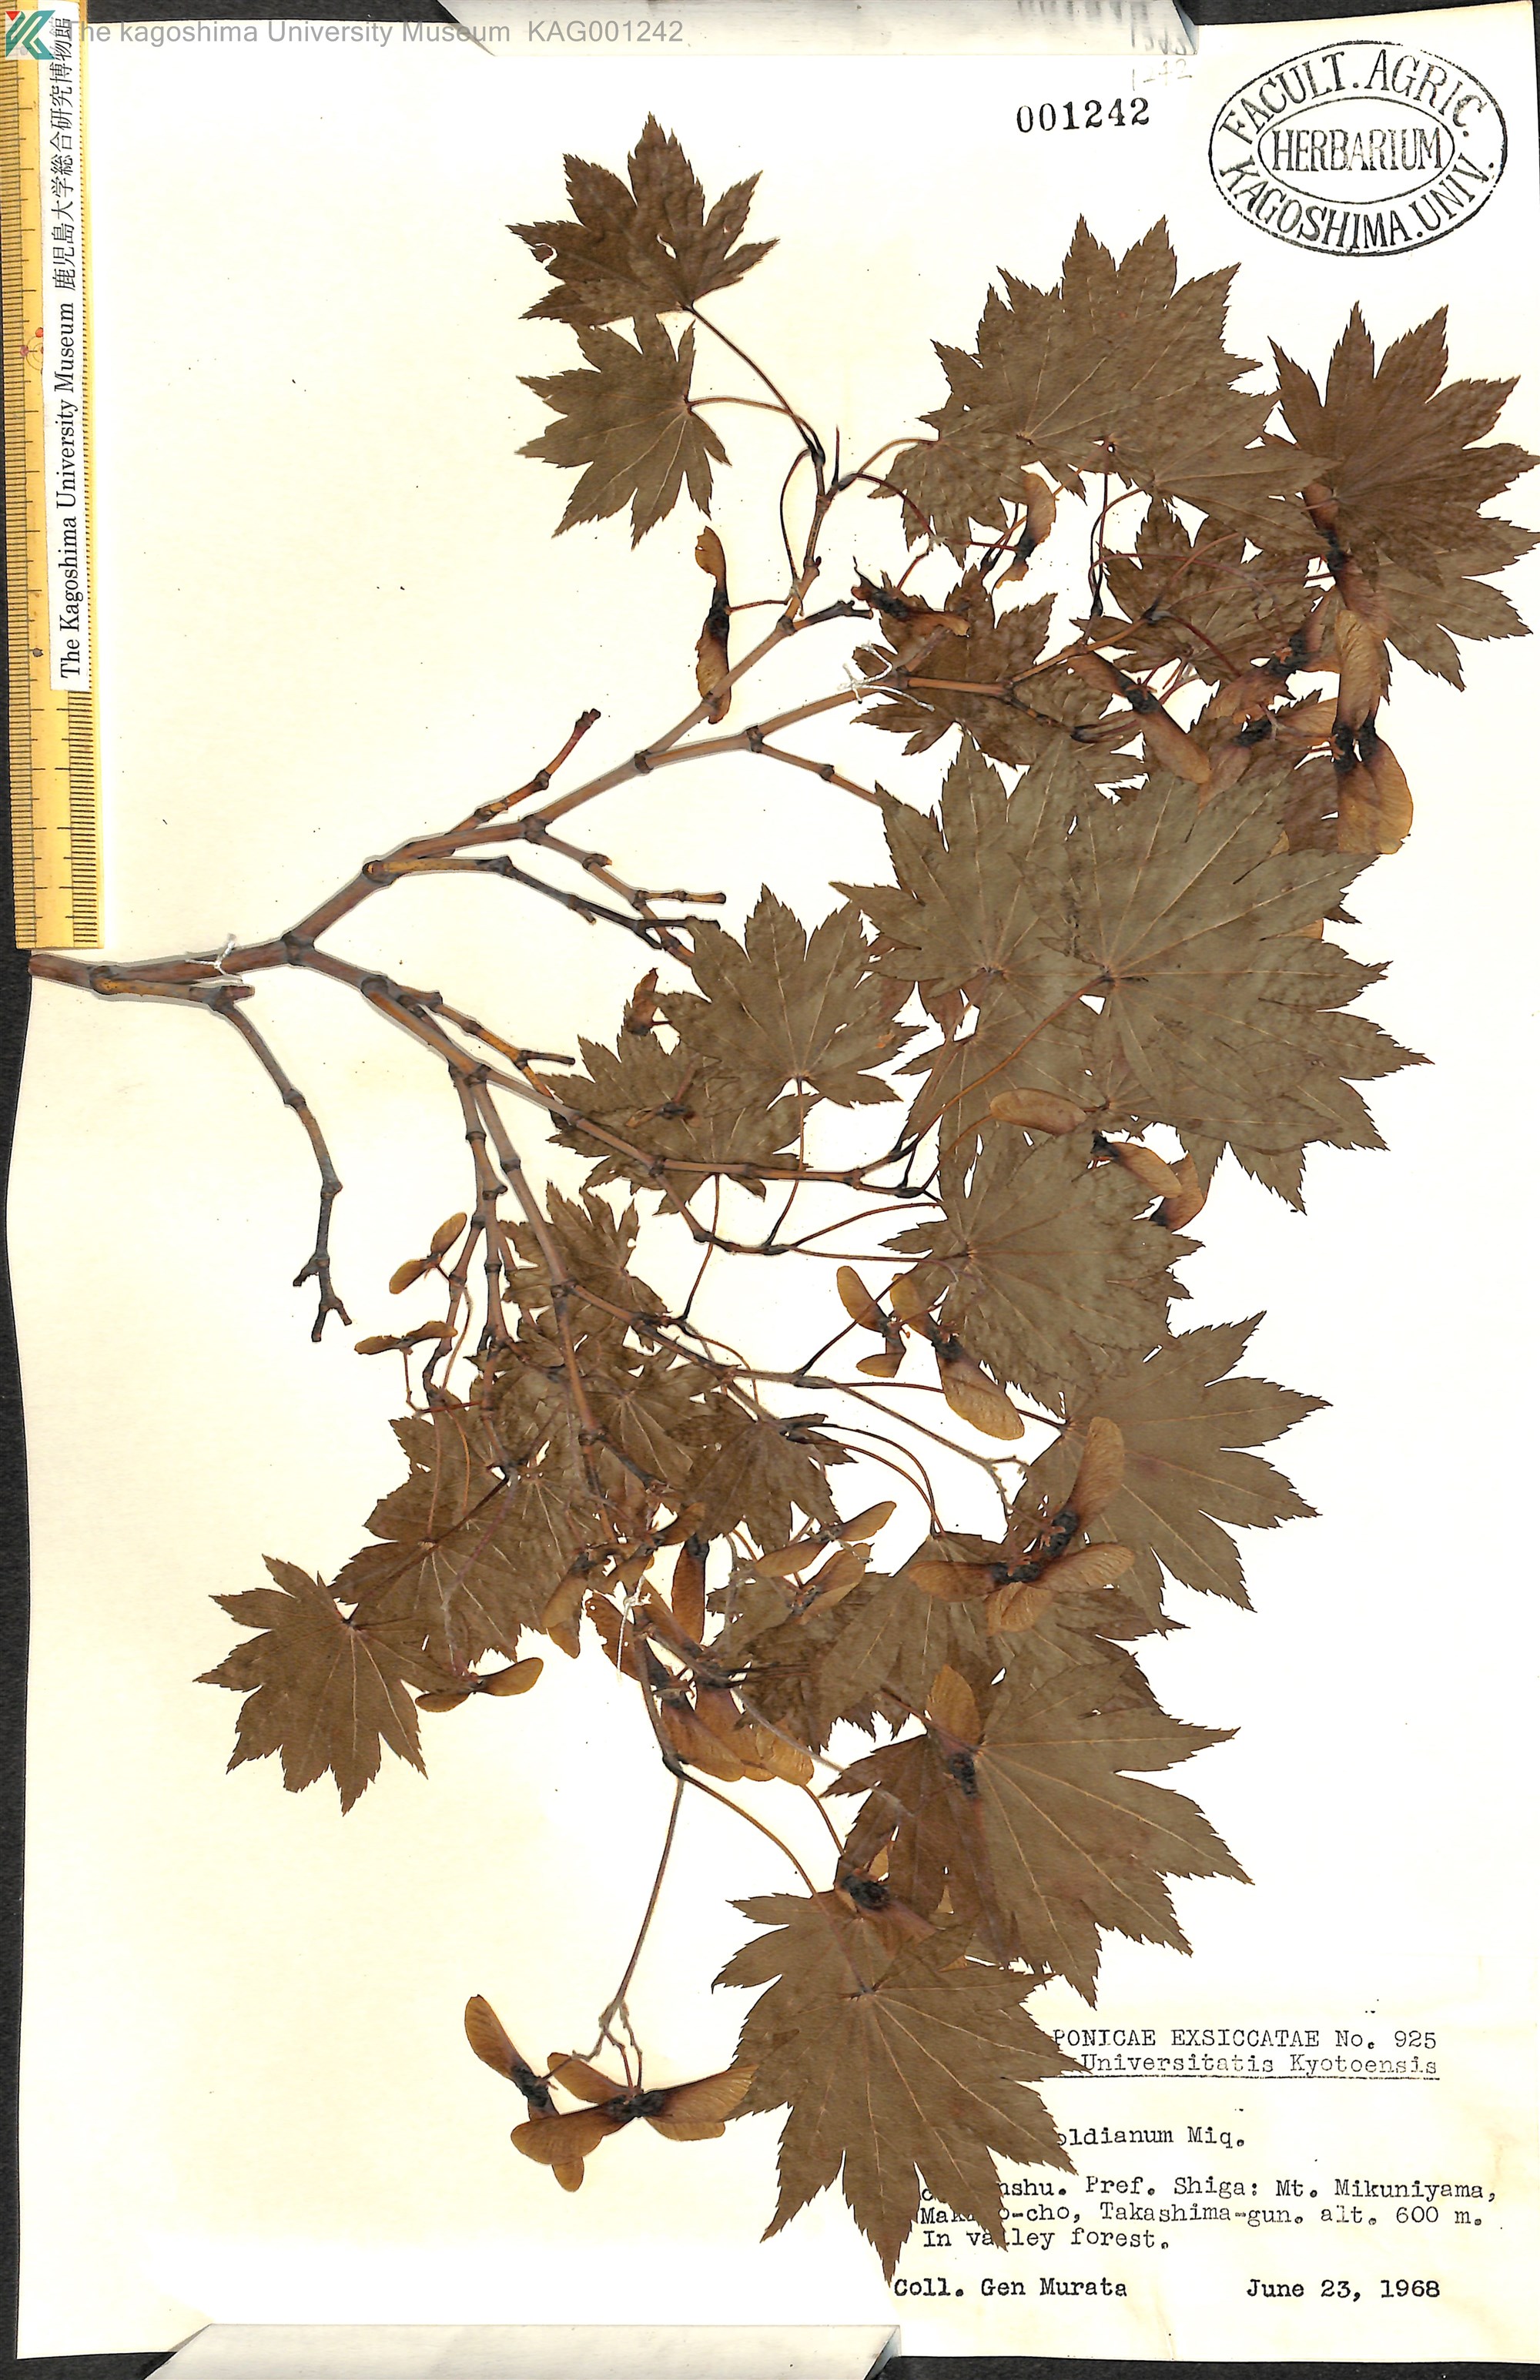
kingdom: Plantae
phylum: Tracheophyta
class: Magnoliopsida
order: Sapindales
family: Sapindaceae
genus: Acer
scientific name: Acer sieboldianum
